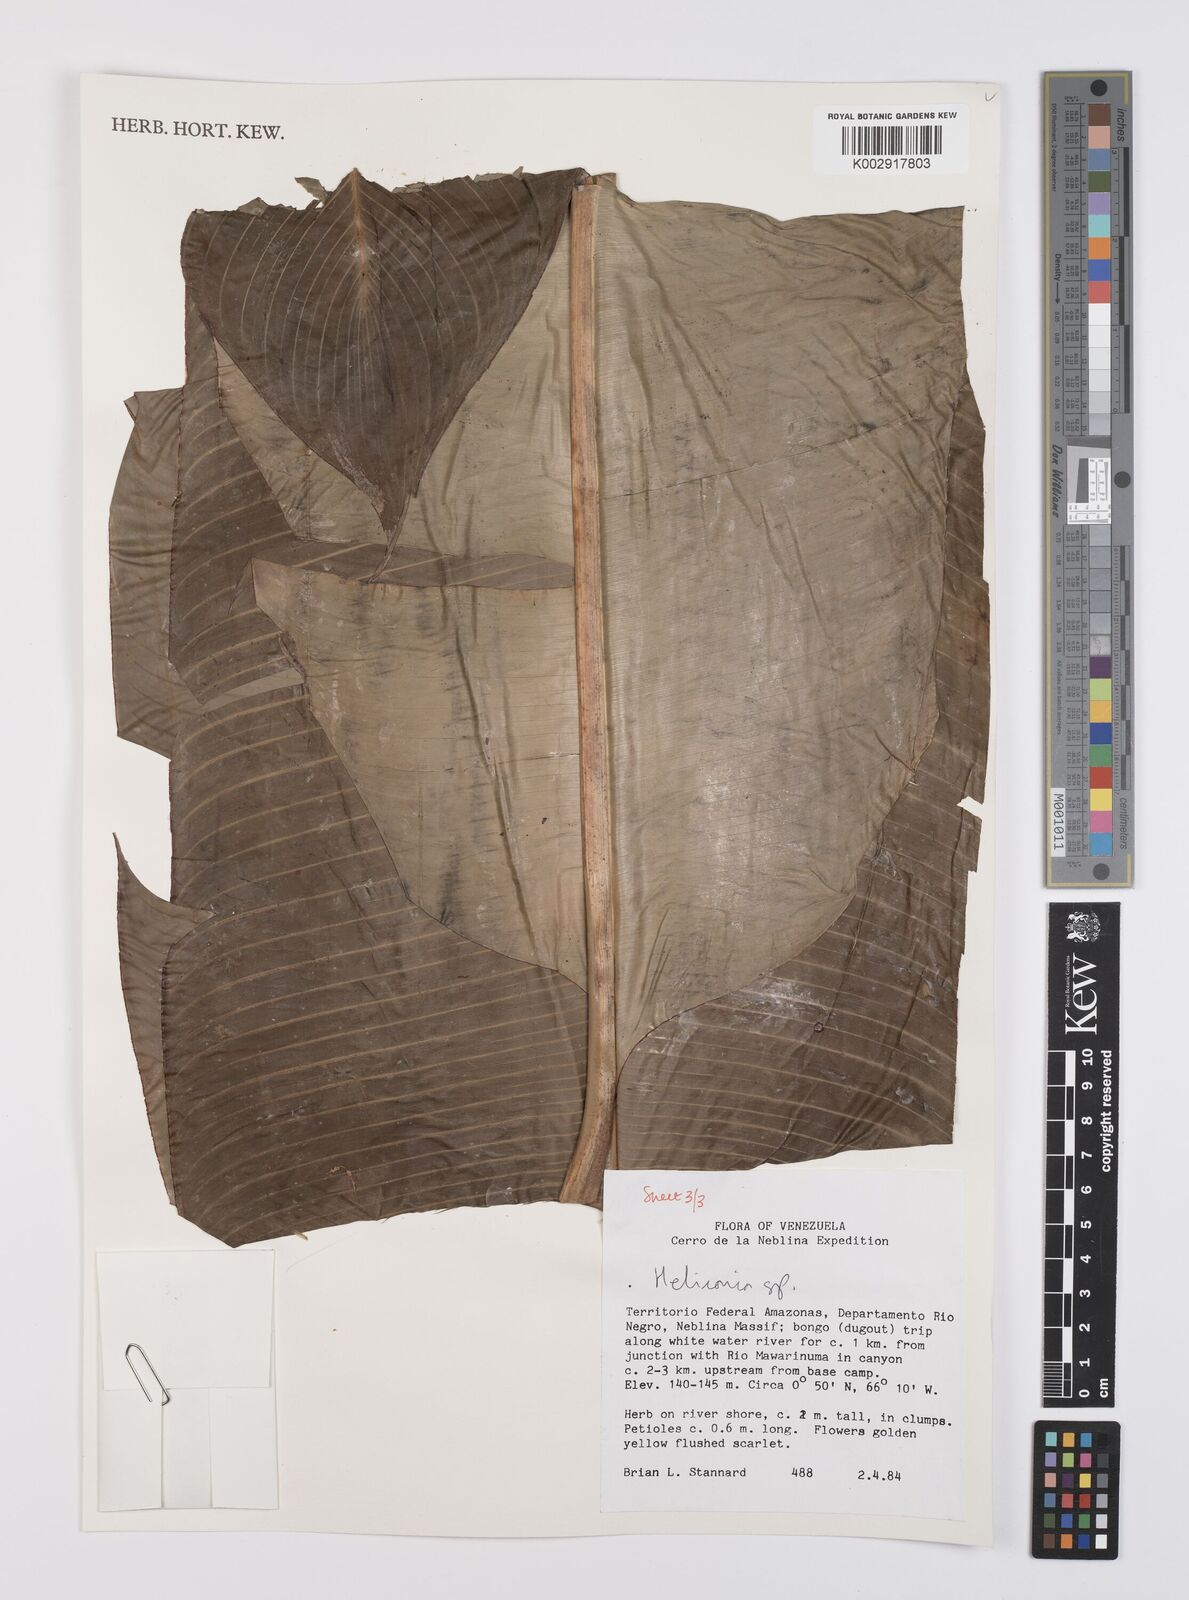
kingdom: Plantae
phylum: Tracheophyta
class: Liliopsida
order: Zingiberales
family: Heliconiaceae
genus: Heliconia
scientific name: Heliconia
